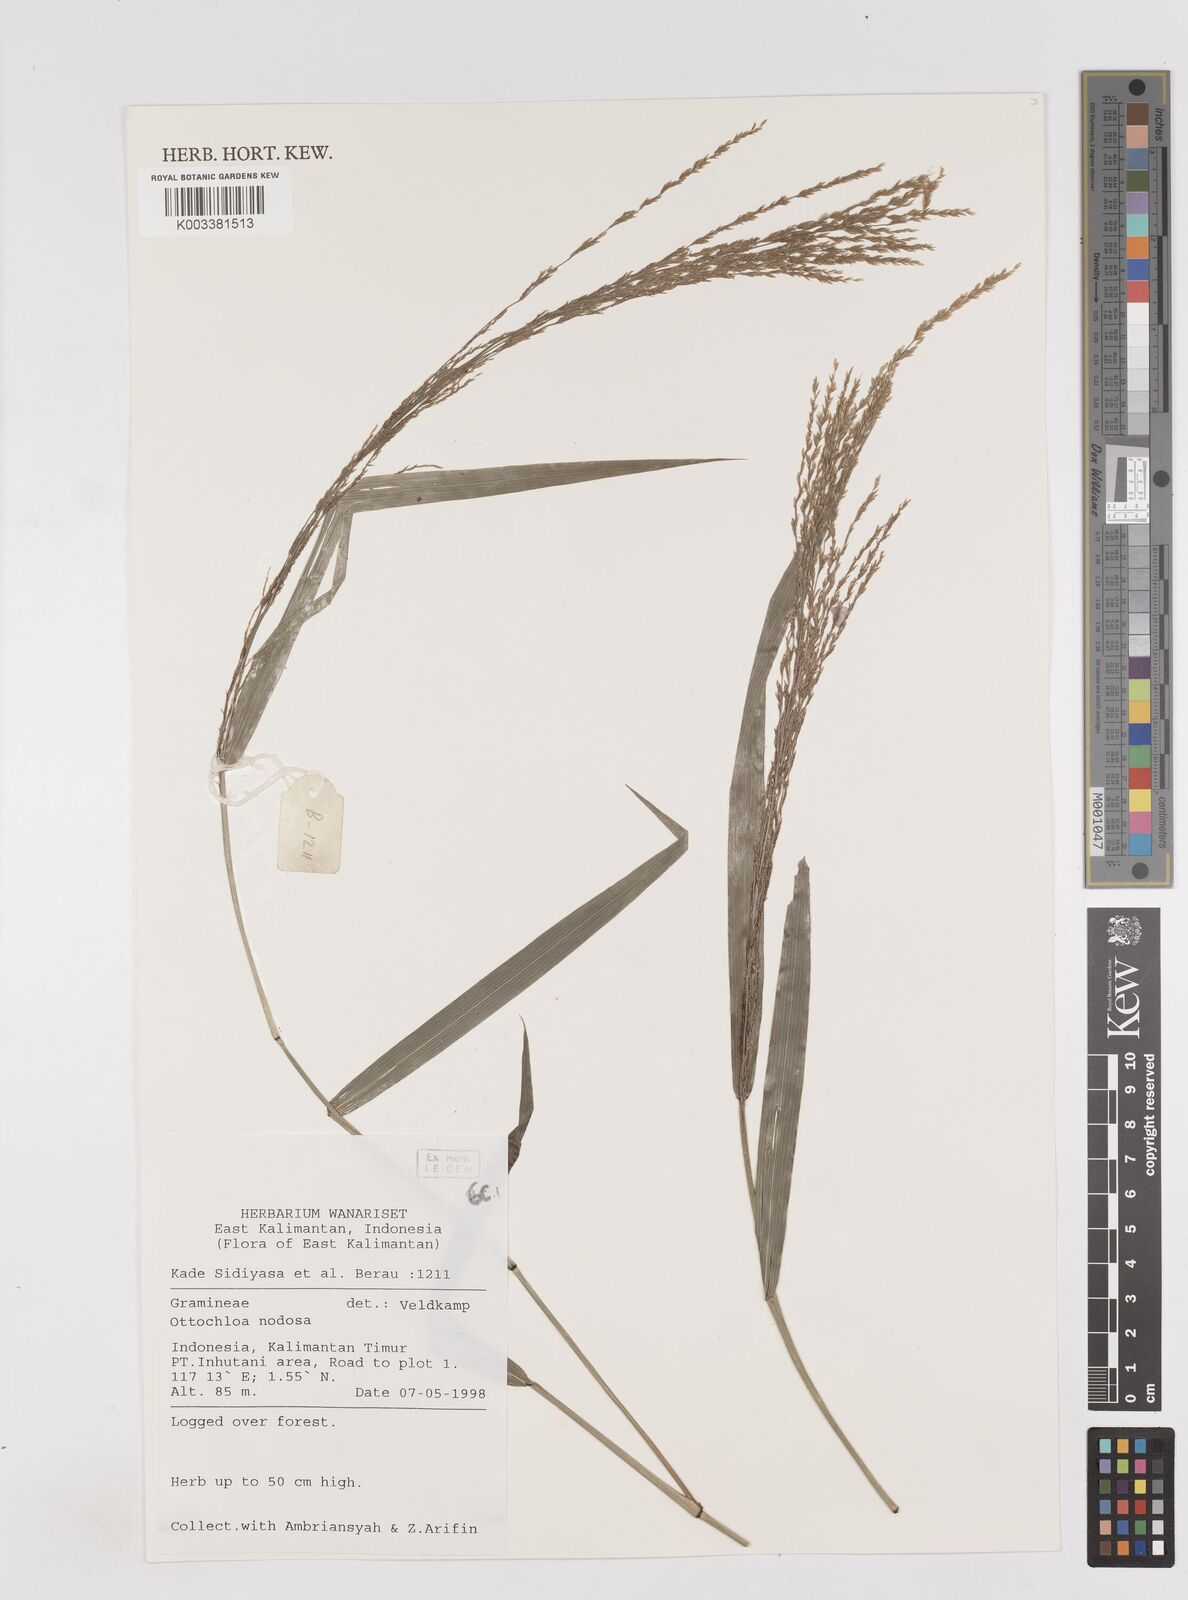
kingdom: Plantae
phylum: Tracheophyta
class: Liliopsida
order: Poales
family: Poaceae
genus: Ottochloa
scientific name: Ottochloa nodosa
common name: Slender-panic grass
